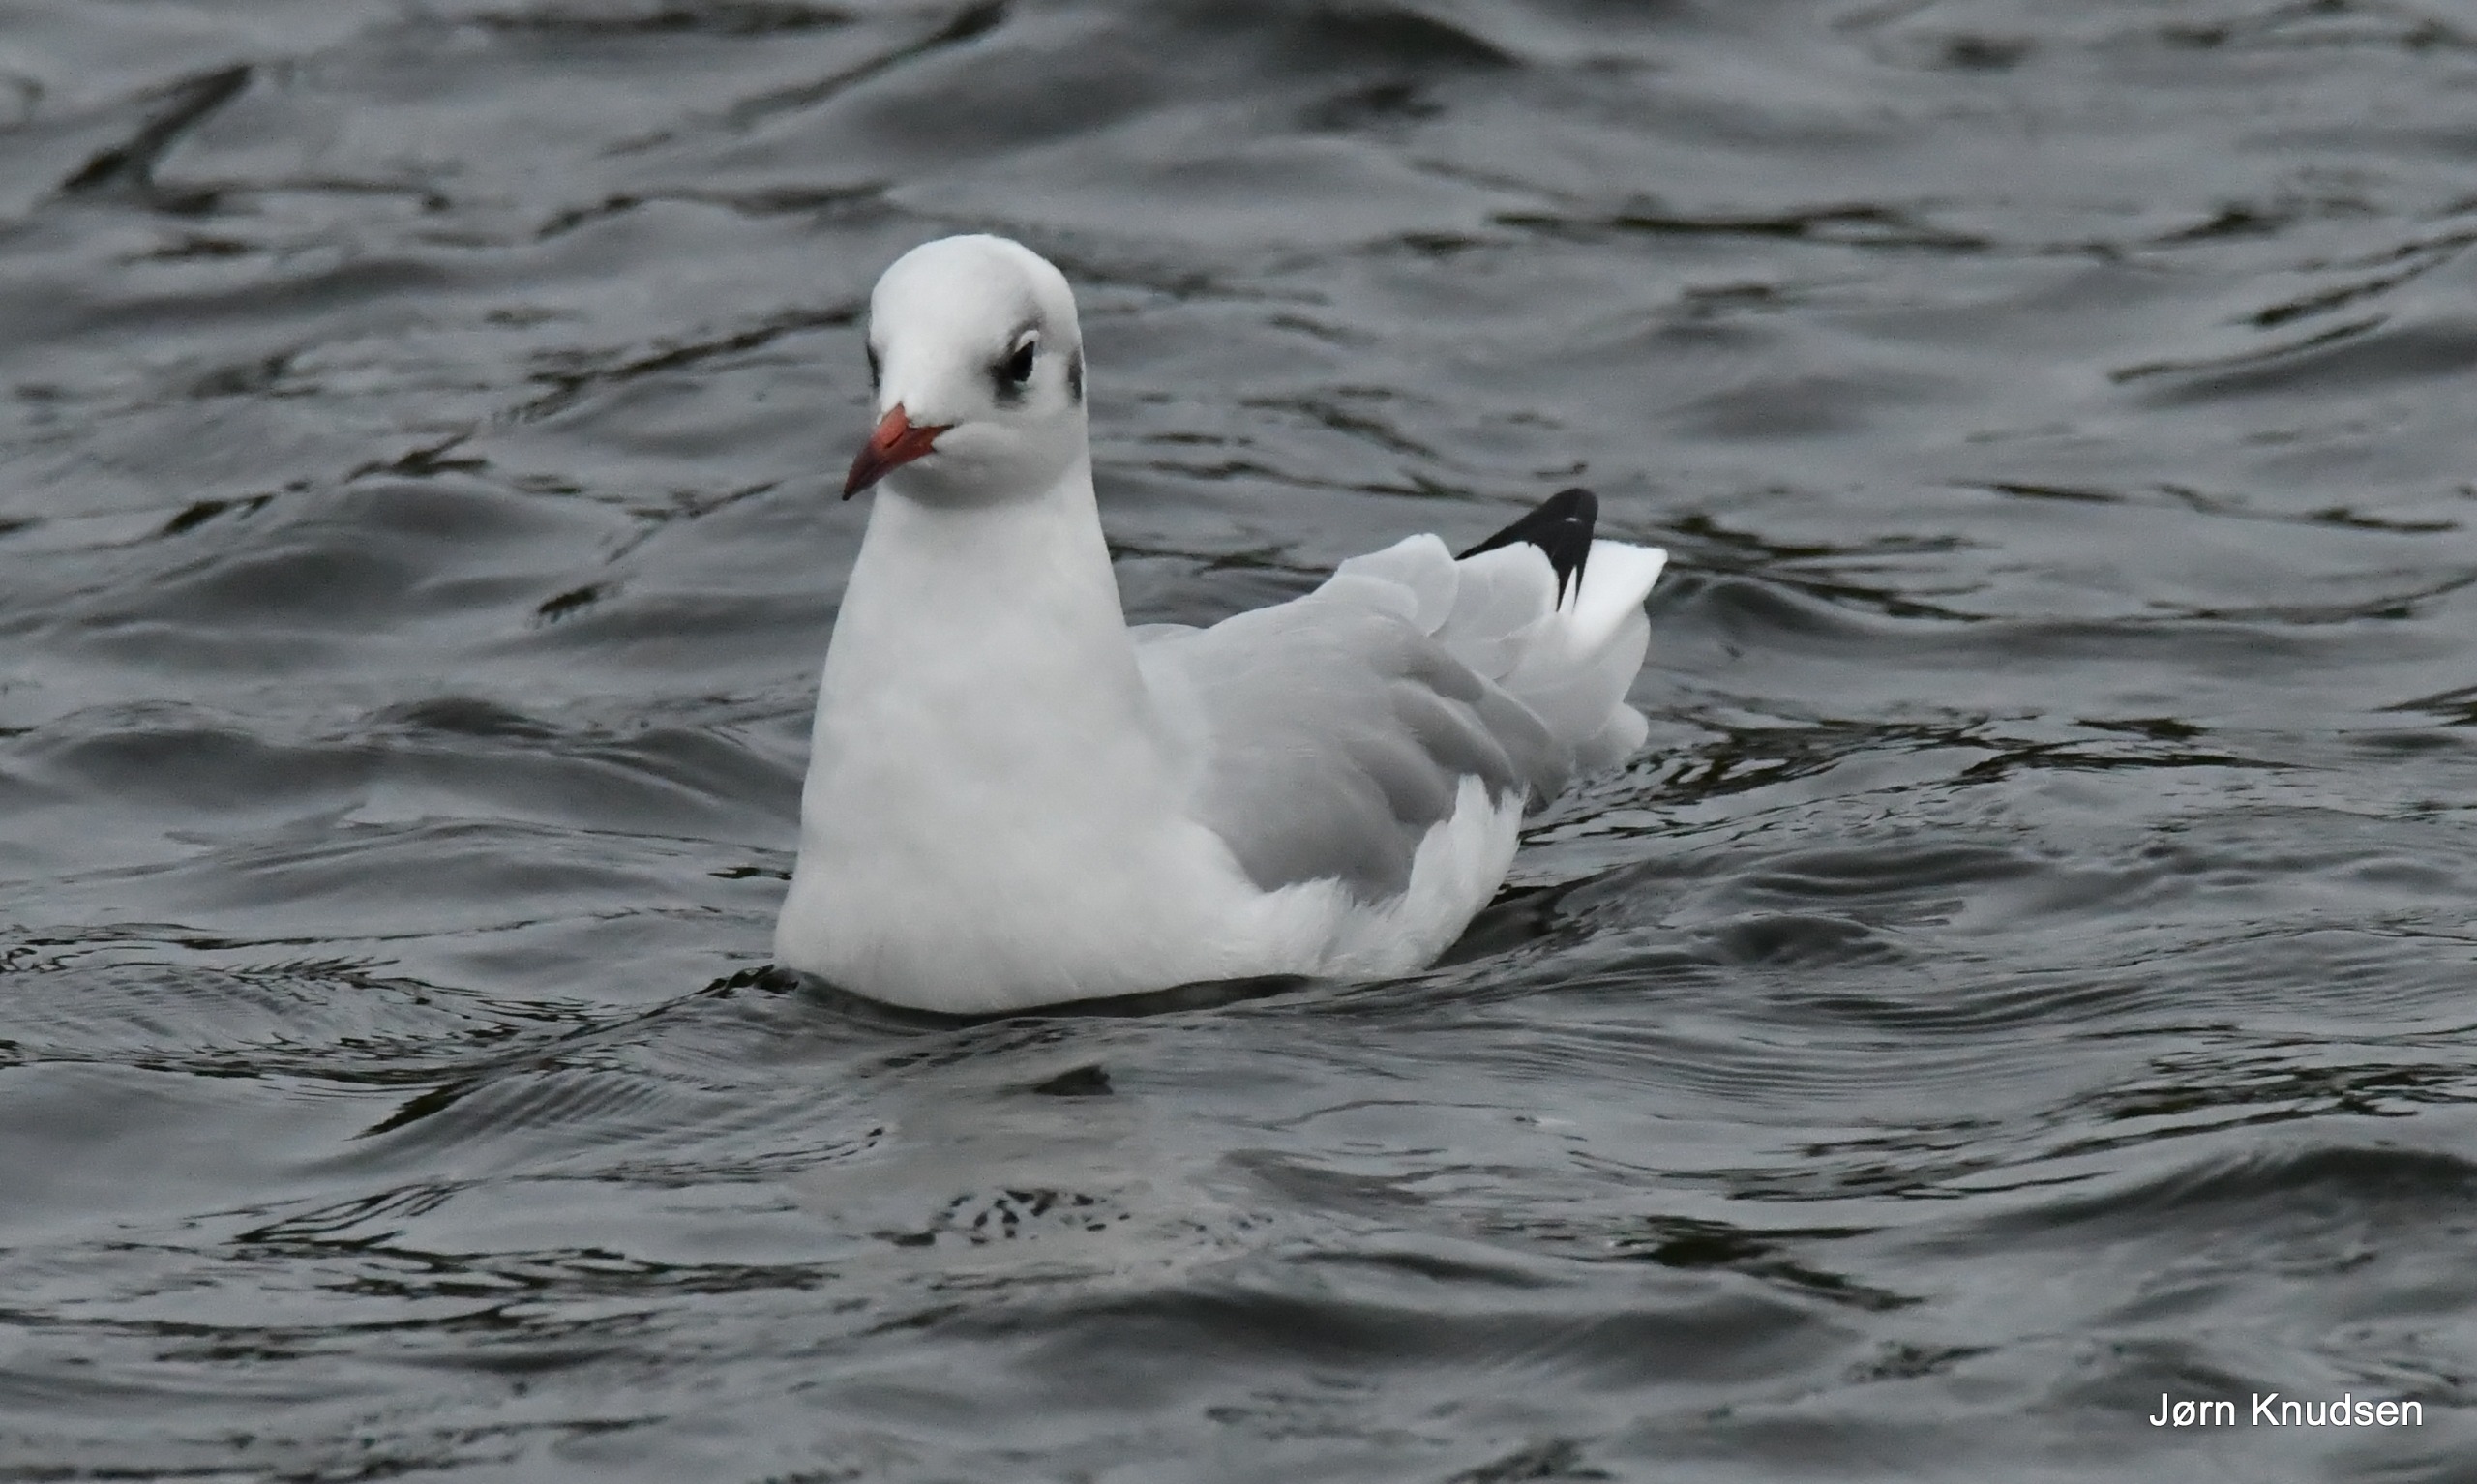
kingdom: Animalia
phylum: Chordata
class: Aves
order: Charadriiformes
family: Laridae
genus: Chroicocephalus
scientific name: Chroicocephalus ridibundus
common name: Hættemåge
